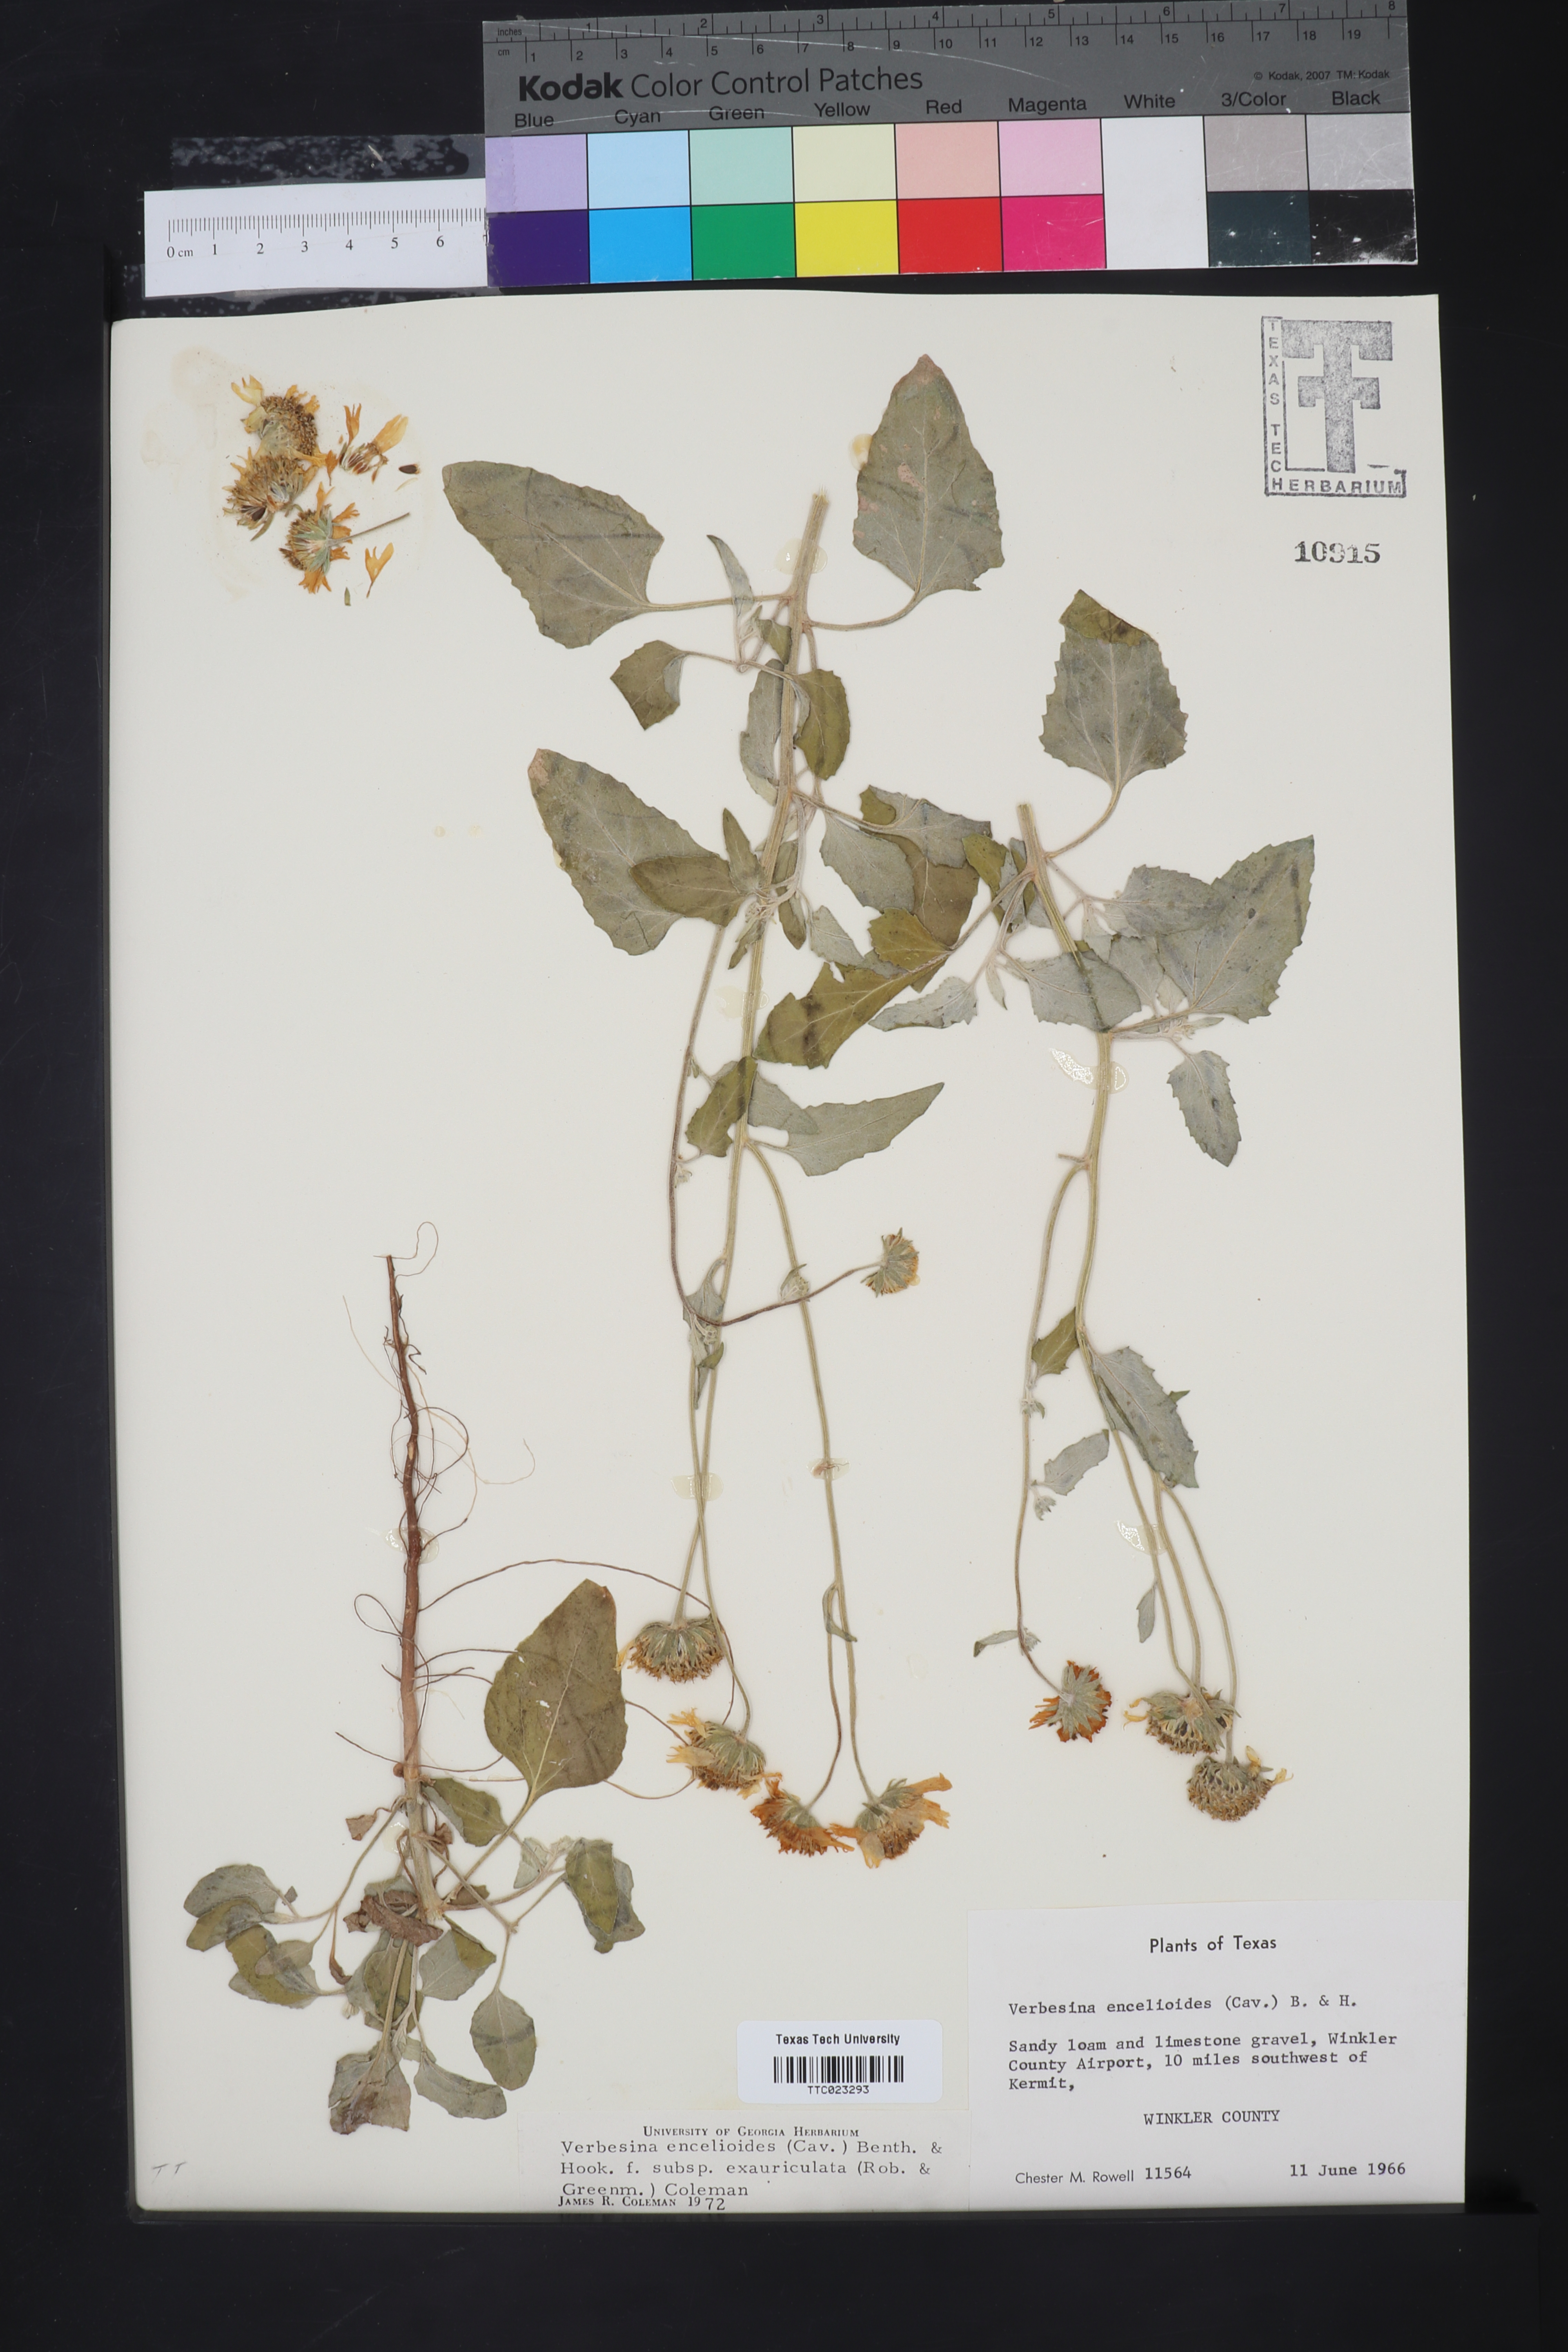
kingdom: Plantae
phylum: Tracheophyta
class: Magnoliopsida
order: Asterales
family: Asteraceae
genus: Verbesina
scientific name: Verbesina encelioides
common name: Golden crownbeard
